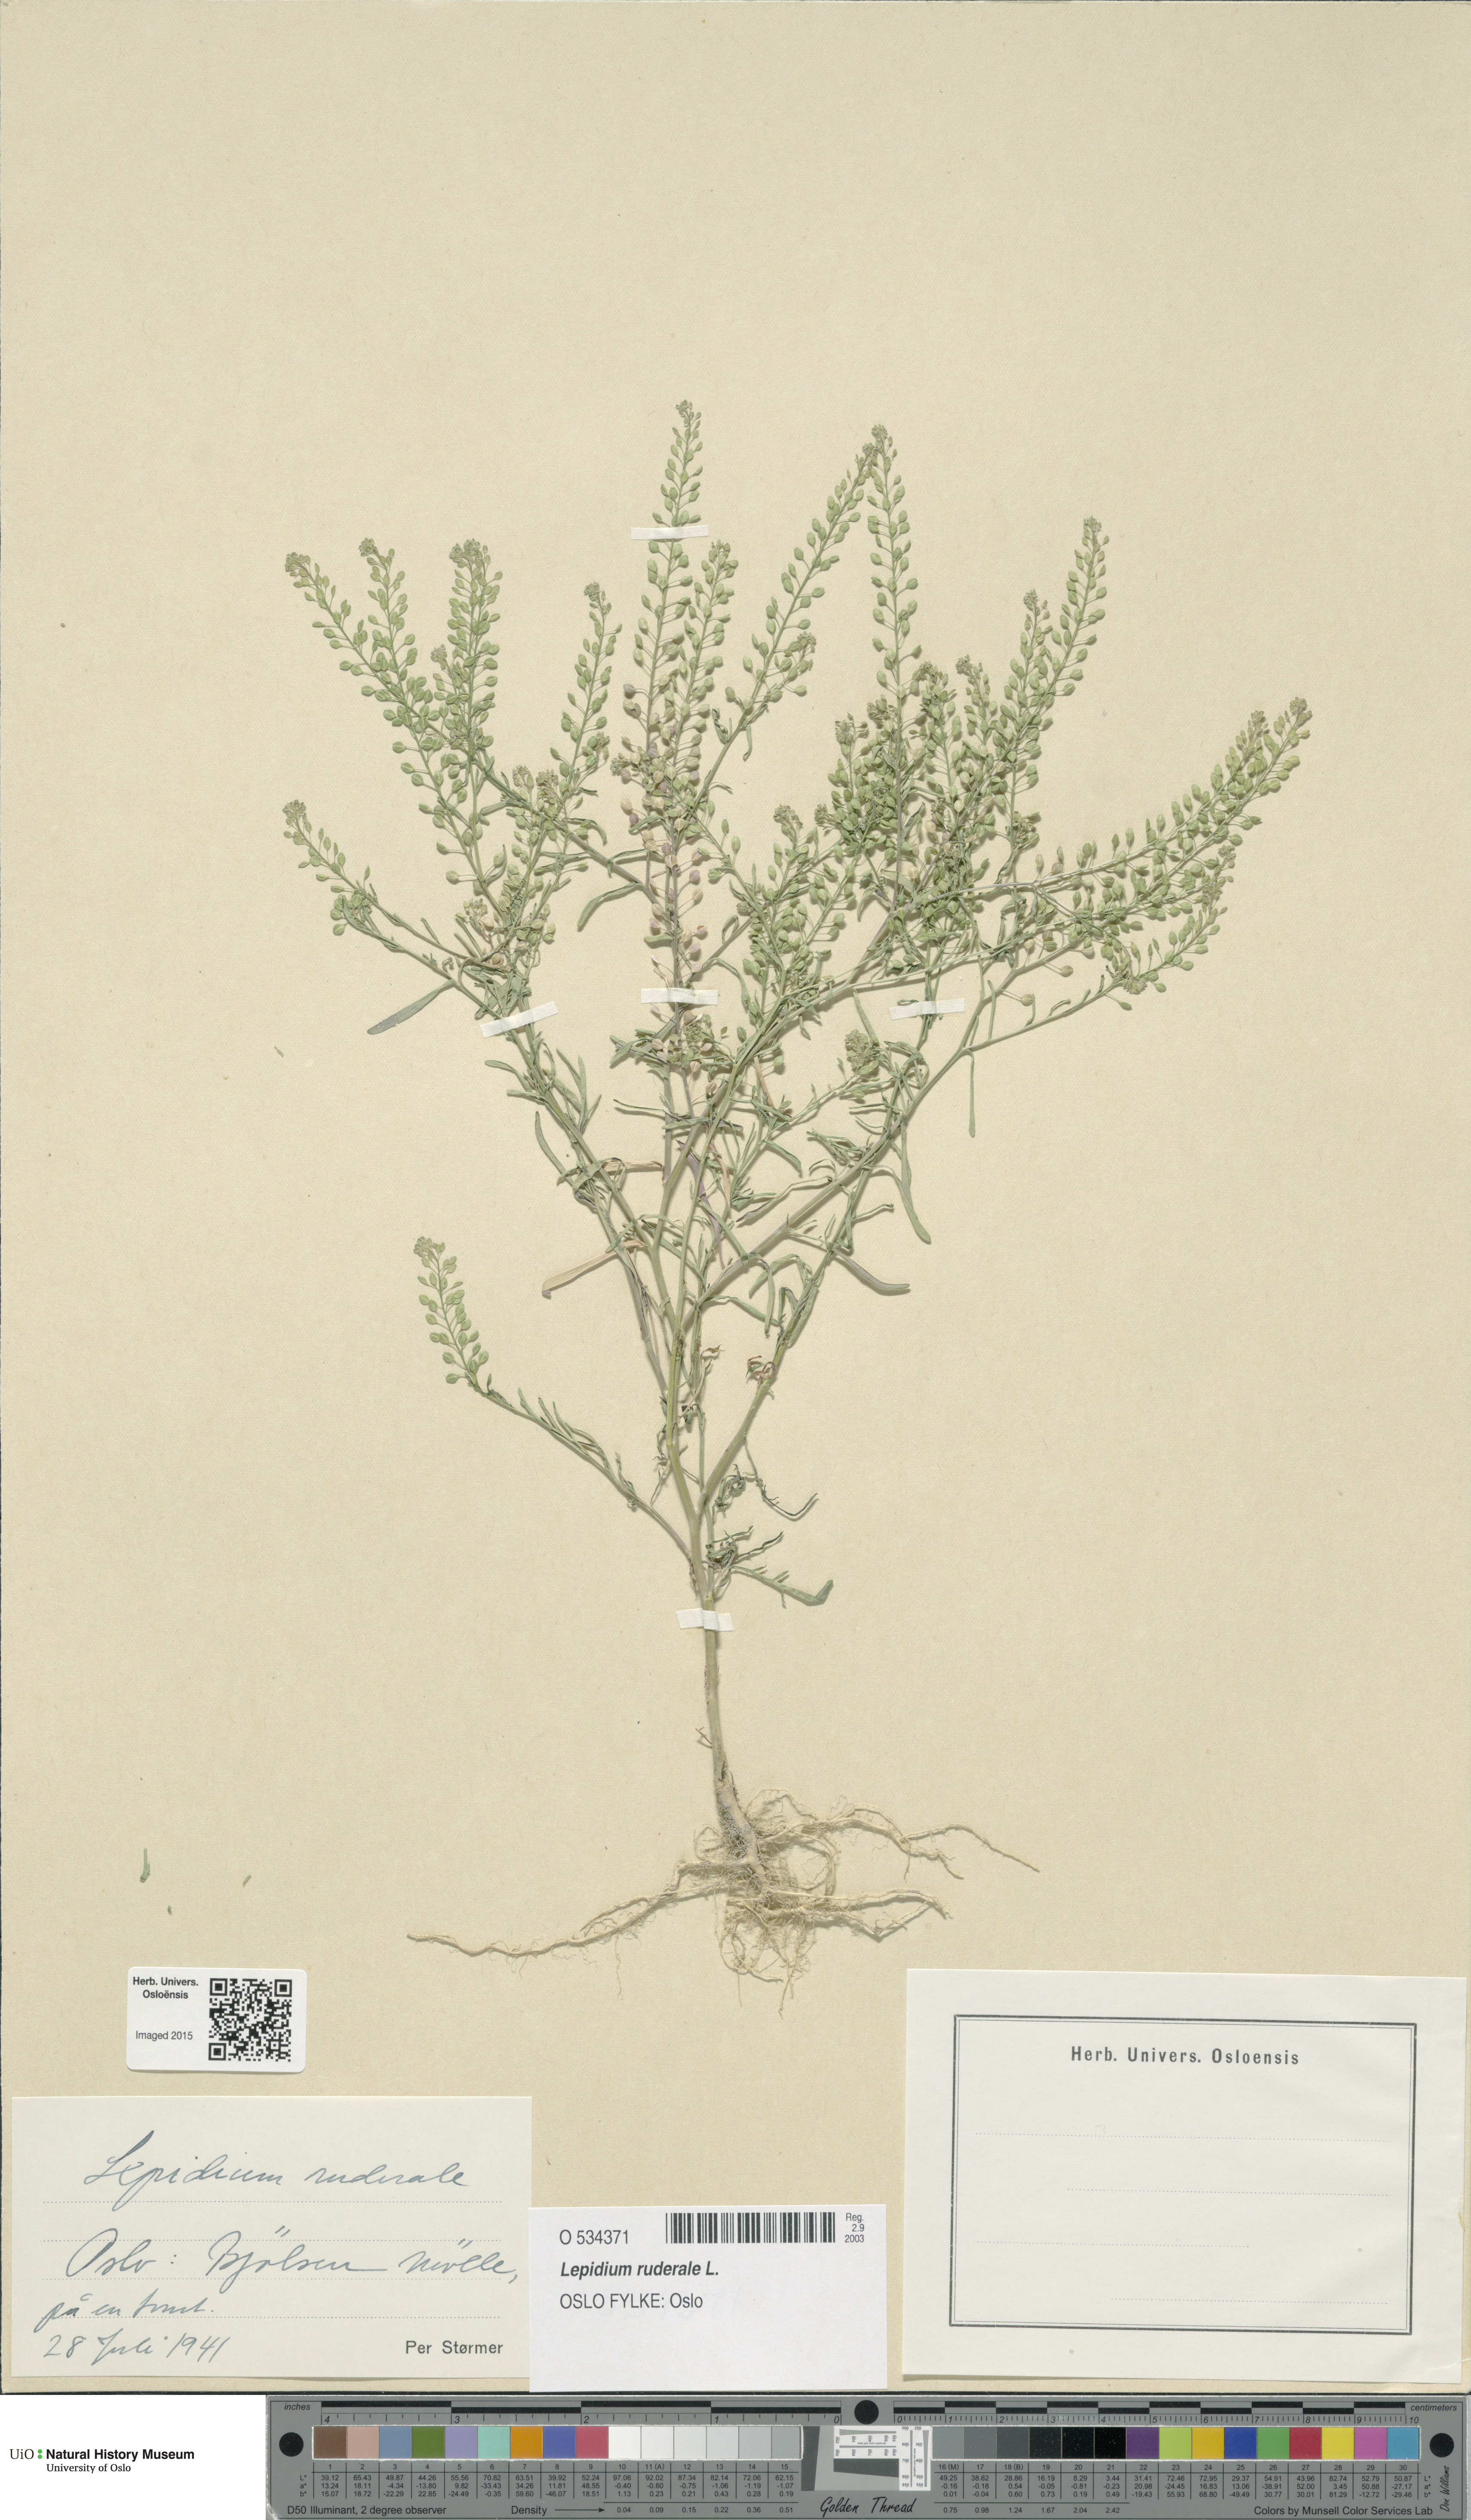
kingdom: Plantae
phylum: Tracheophyta
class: Magnoliopsida
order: Brassicales
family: Brassicaceae
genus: Lepidium
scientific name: Lepidium ruderale
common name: Narrow-leaved pepperwort
